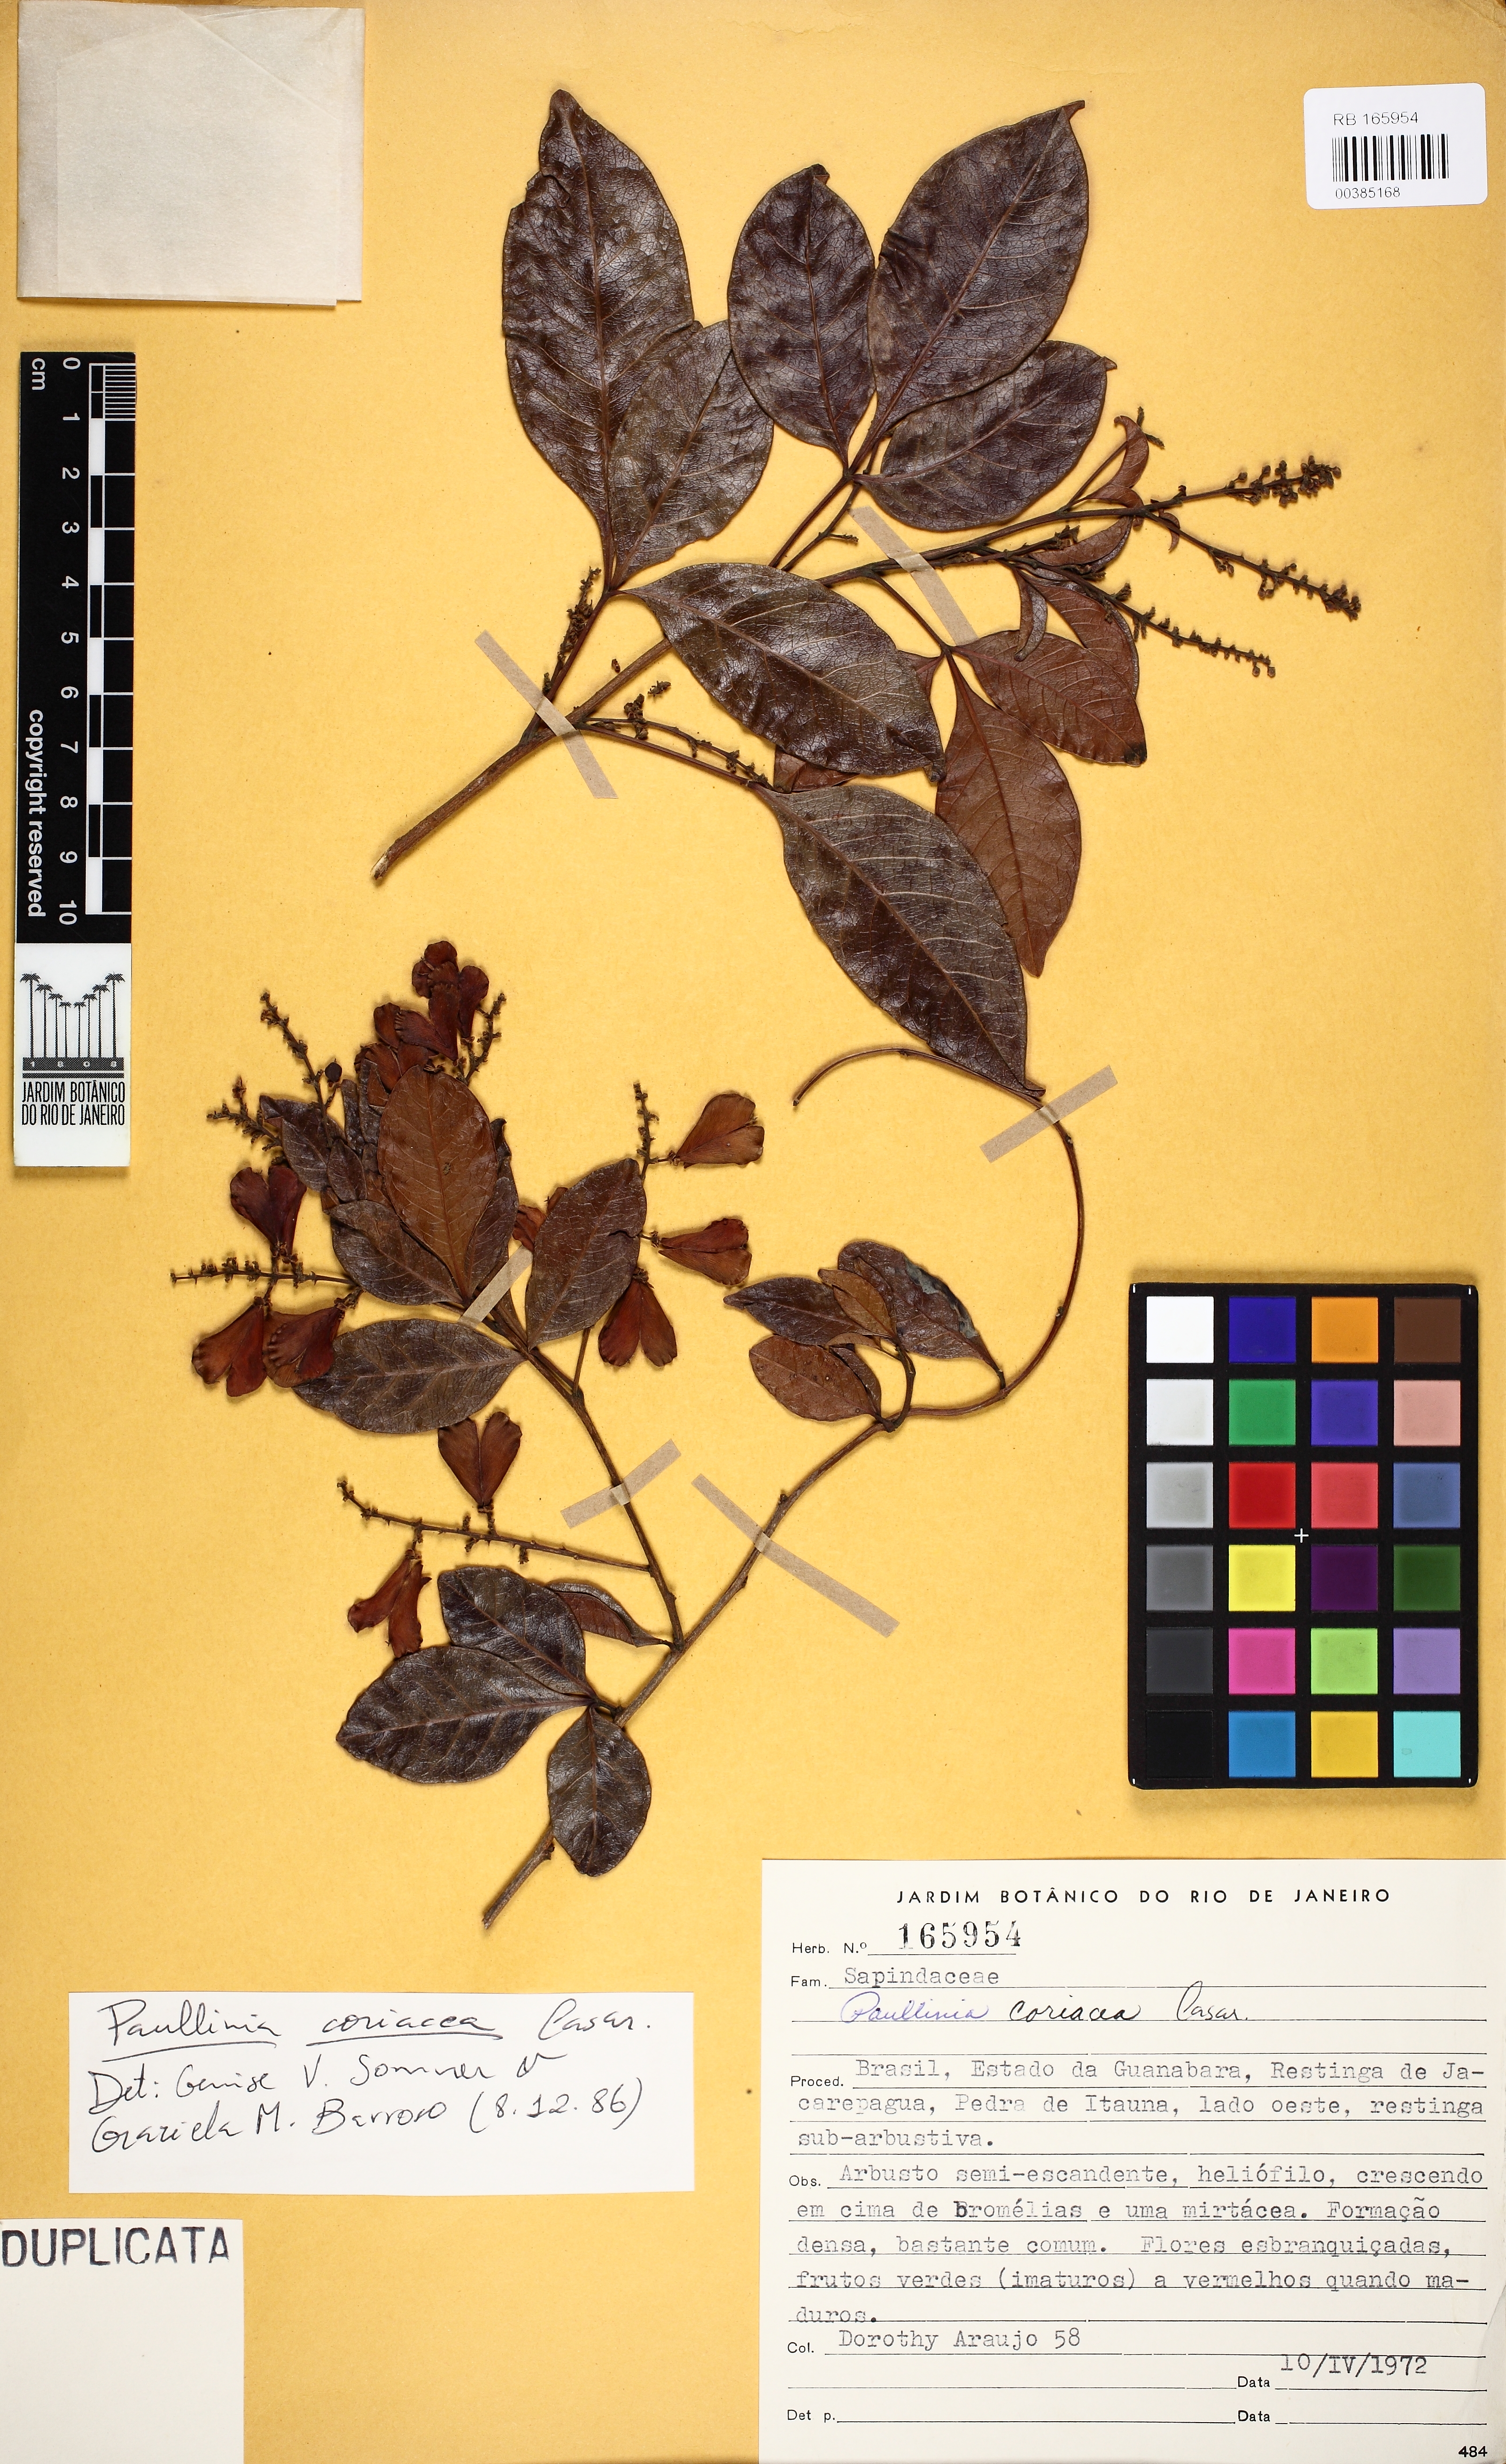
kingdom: Plantae
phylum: Tracheophyta
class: Magnoliopsida
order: Sapindales
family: Sapindaceae
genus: Paullinia
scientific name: Paullinia coriacea
